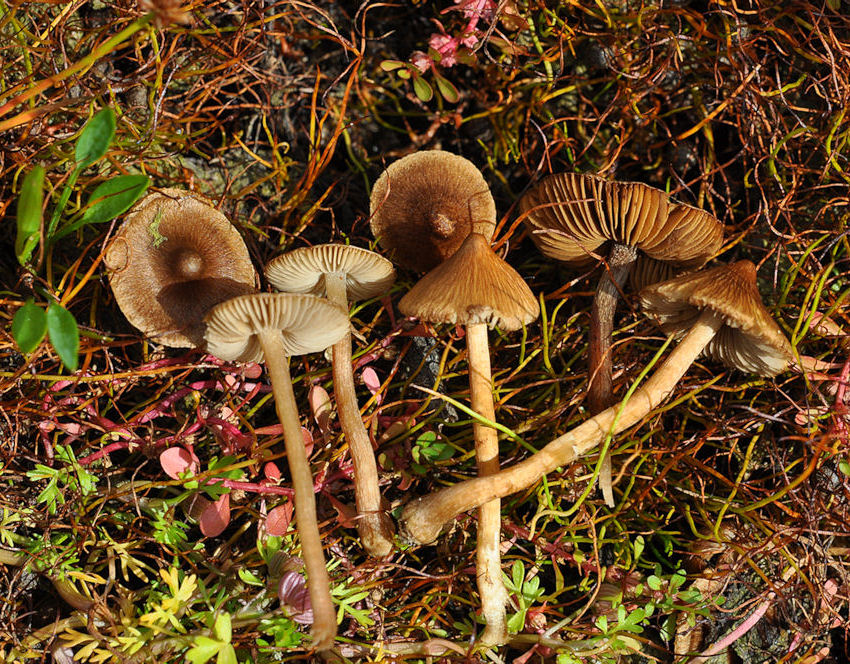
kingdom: Fungi
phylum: Basidiomycota
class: Agaricomycetes
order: Agaricales
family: Inocybaceae
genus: Inocybe
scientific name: Inocybe acuta
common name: papil-trævlhat
